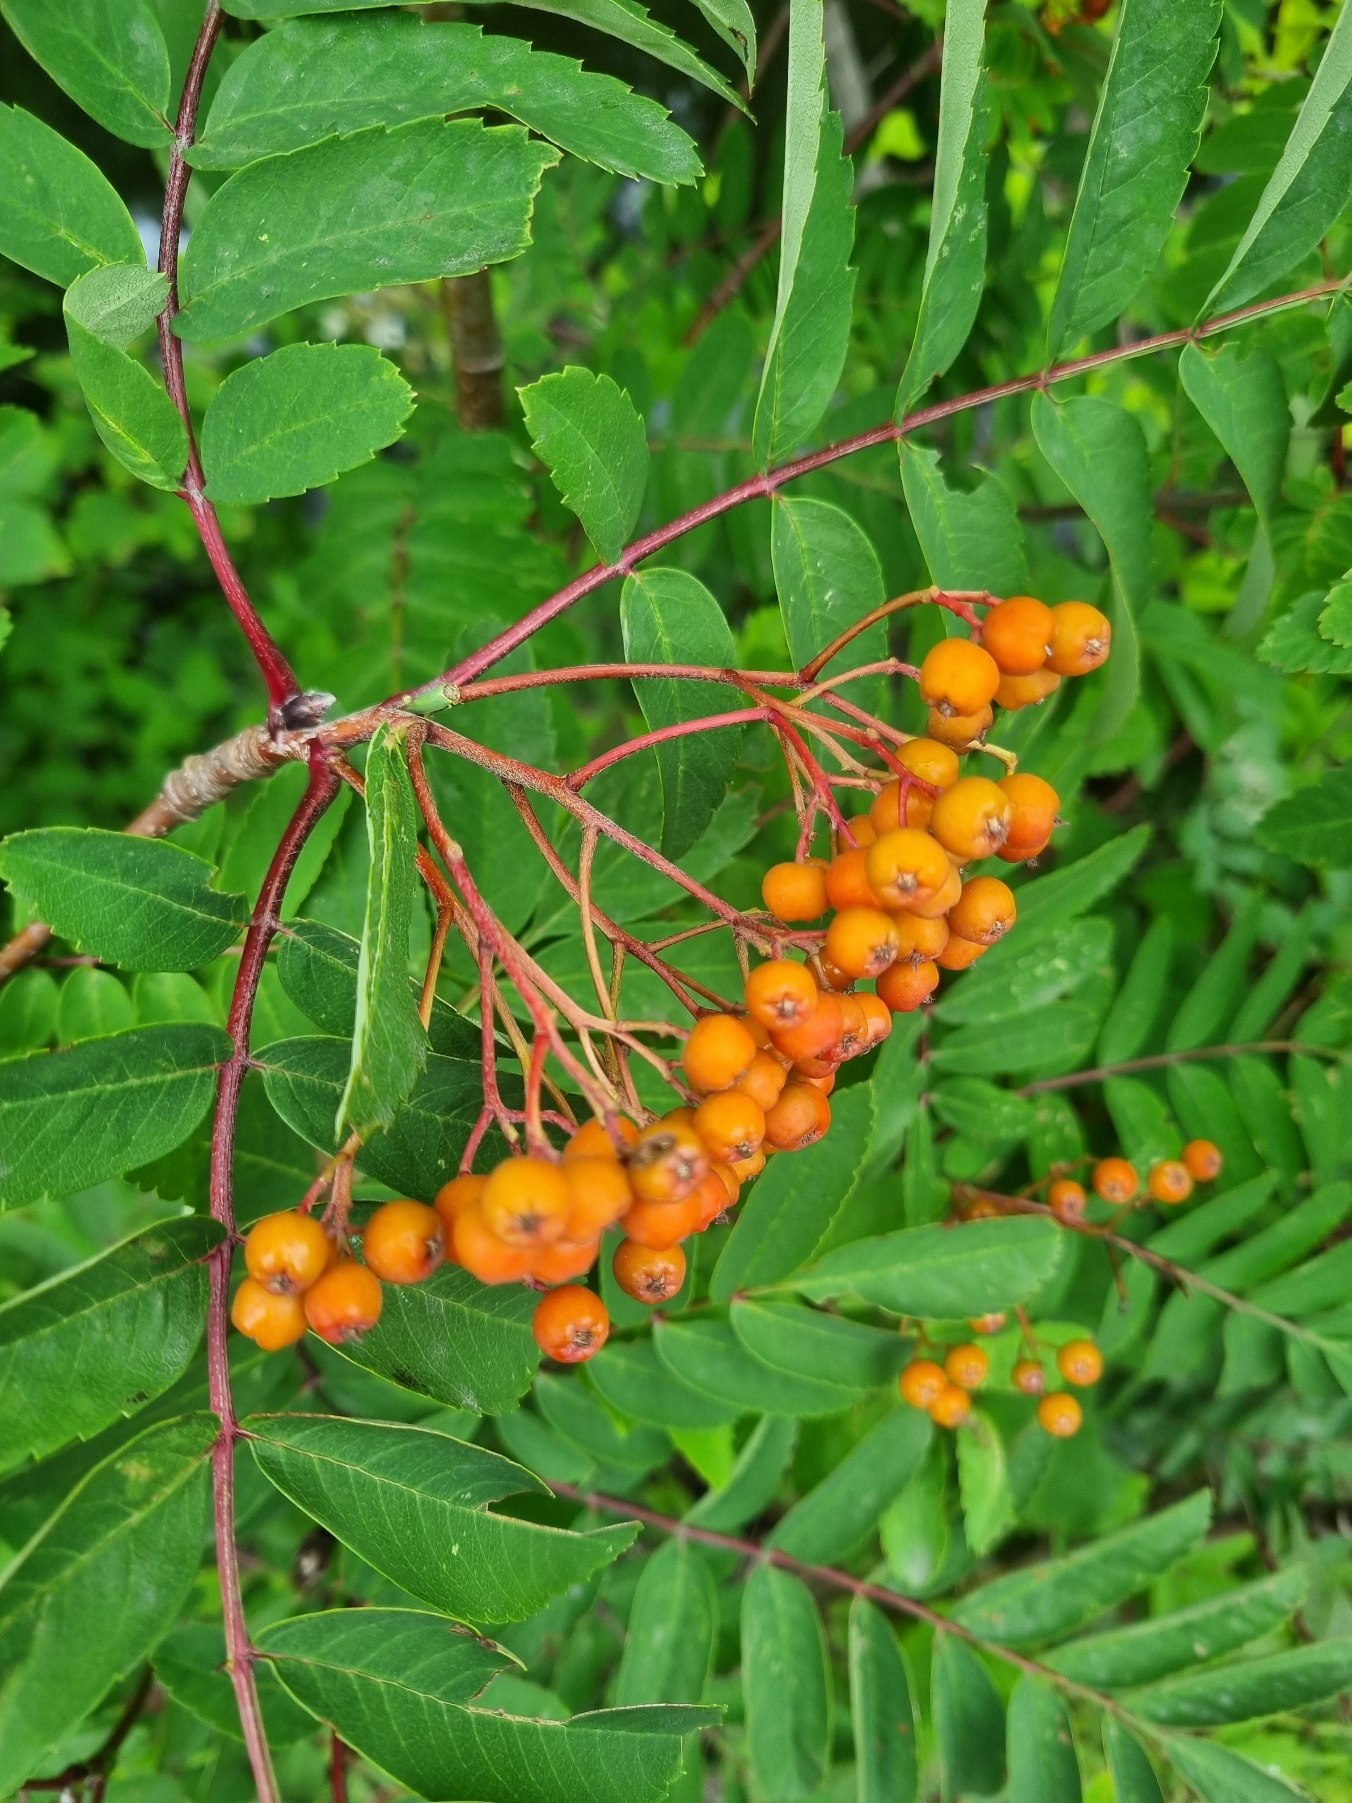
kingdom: Plantae
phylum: Tracheophyta
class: Magnoliopsida
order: Rosales
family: Rosaceae
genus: Sorbus
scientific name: Sorbus aucuparia
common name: Almindelig røn
